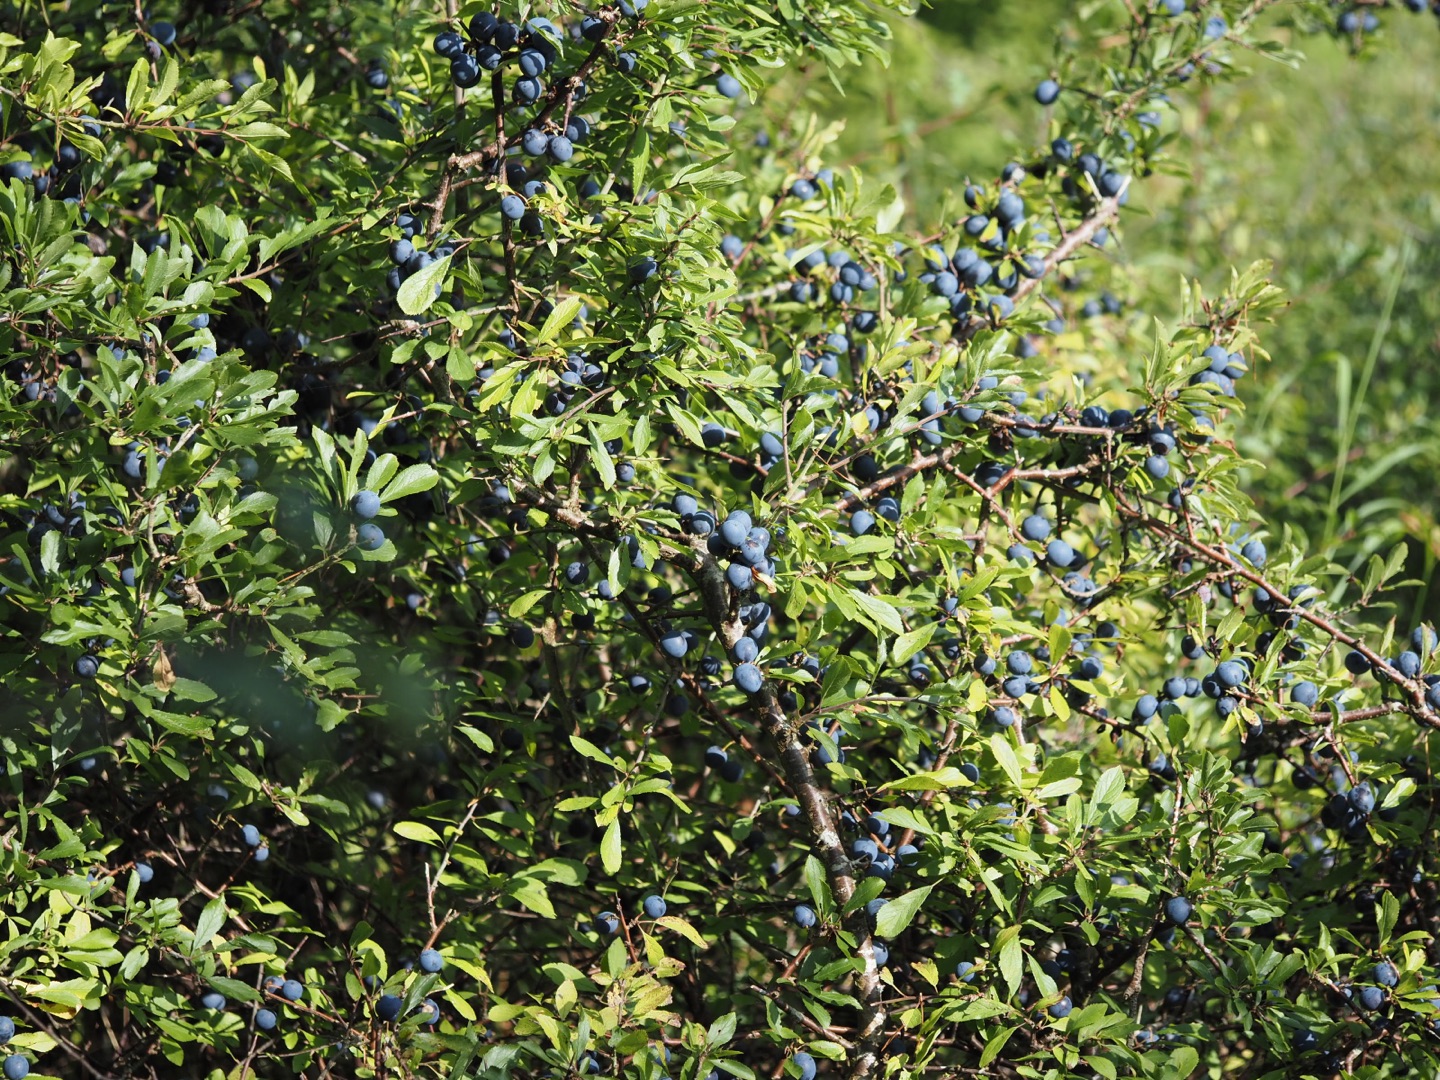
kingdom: Plantae
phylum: Tracheophyta
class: Magnoliopsida
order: Rosales
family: Rosaceae
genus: Prunus
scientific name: Prunus spinosa
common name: Slåen
